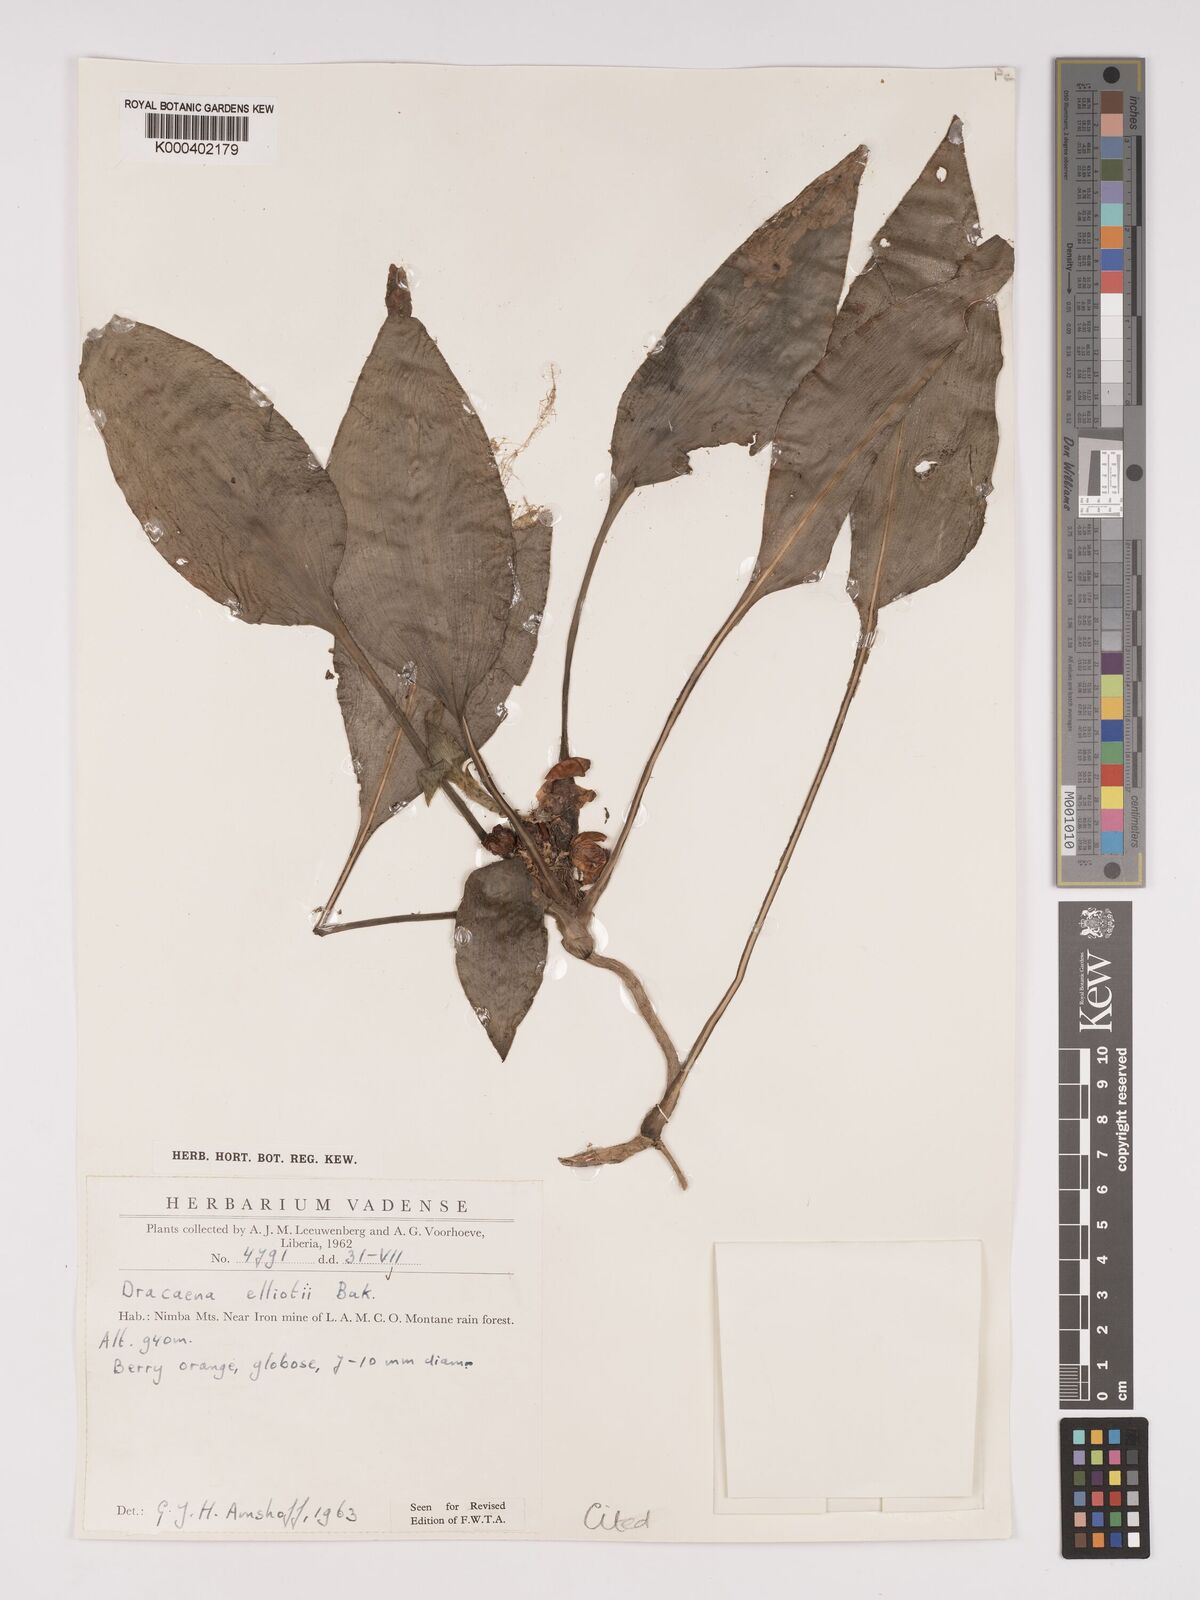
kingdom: Plantae
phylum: Tracheophyta
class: Liliopsida
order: Asparagales
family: Asparagaceae
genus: Dracaena
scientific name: Dracaena cristula
